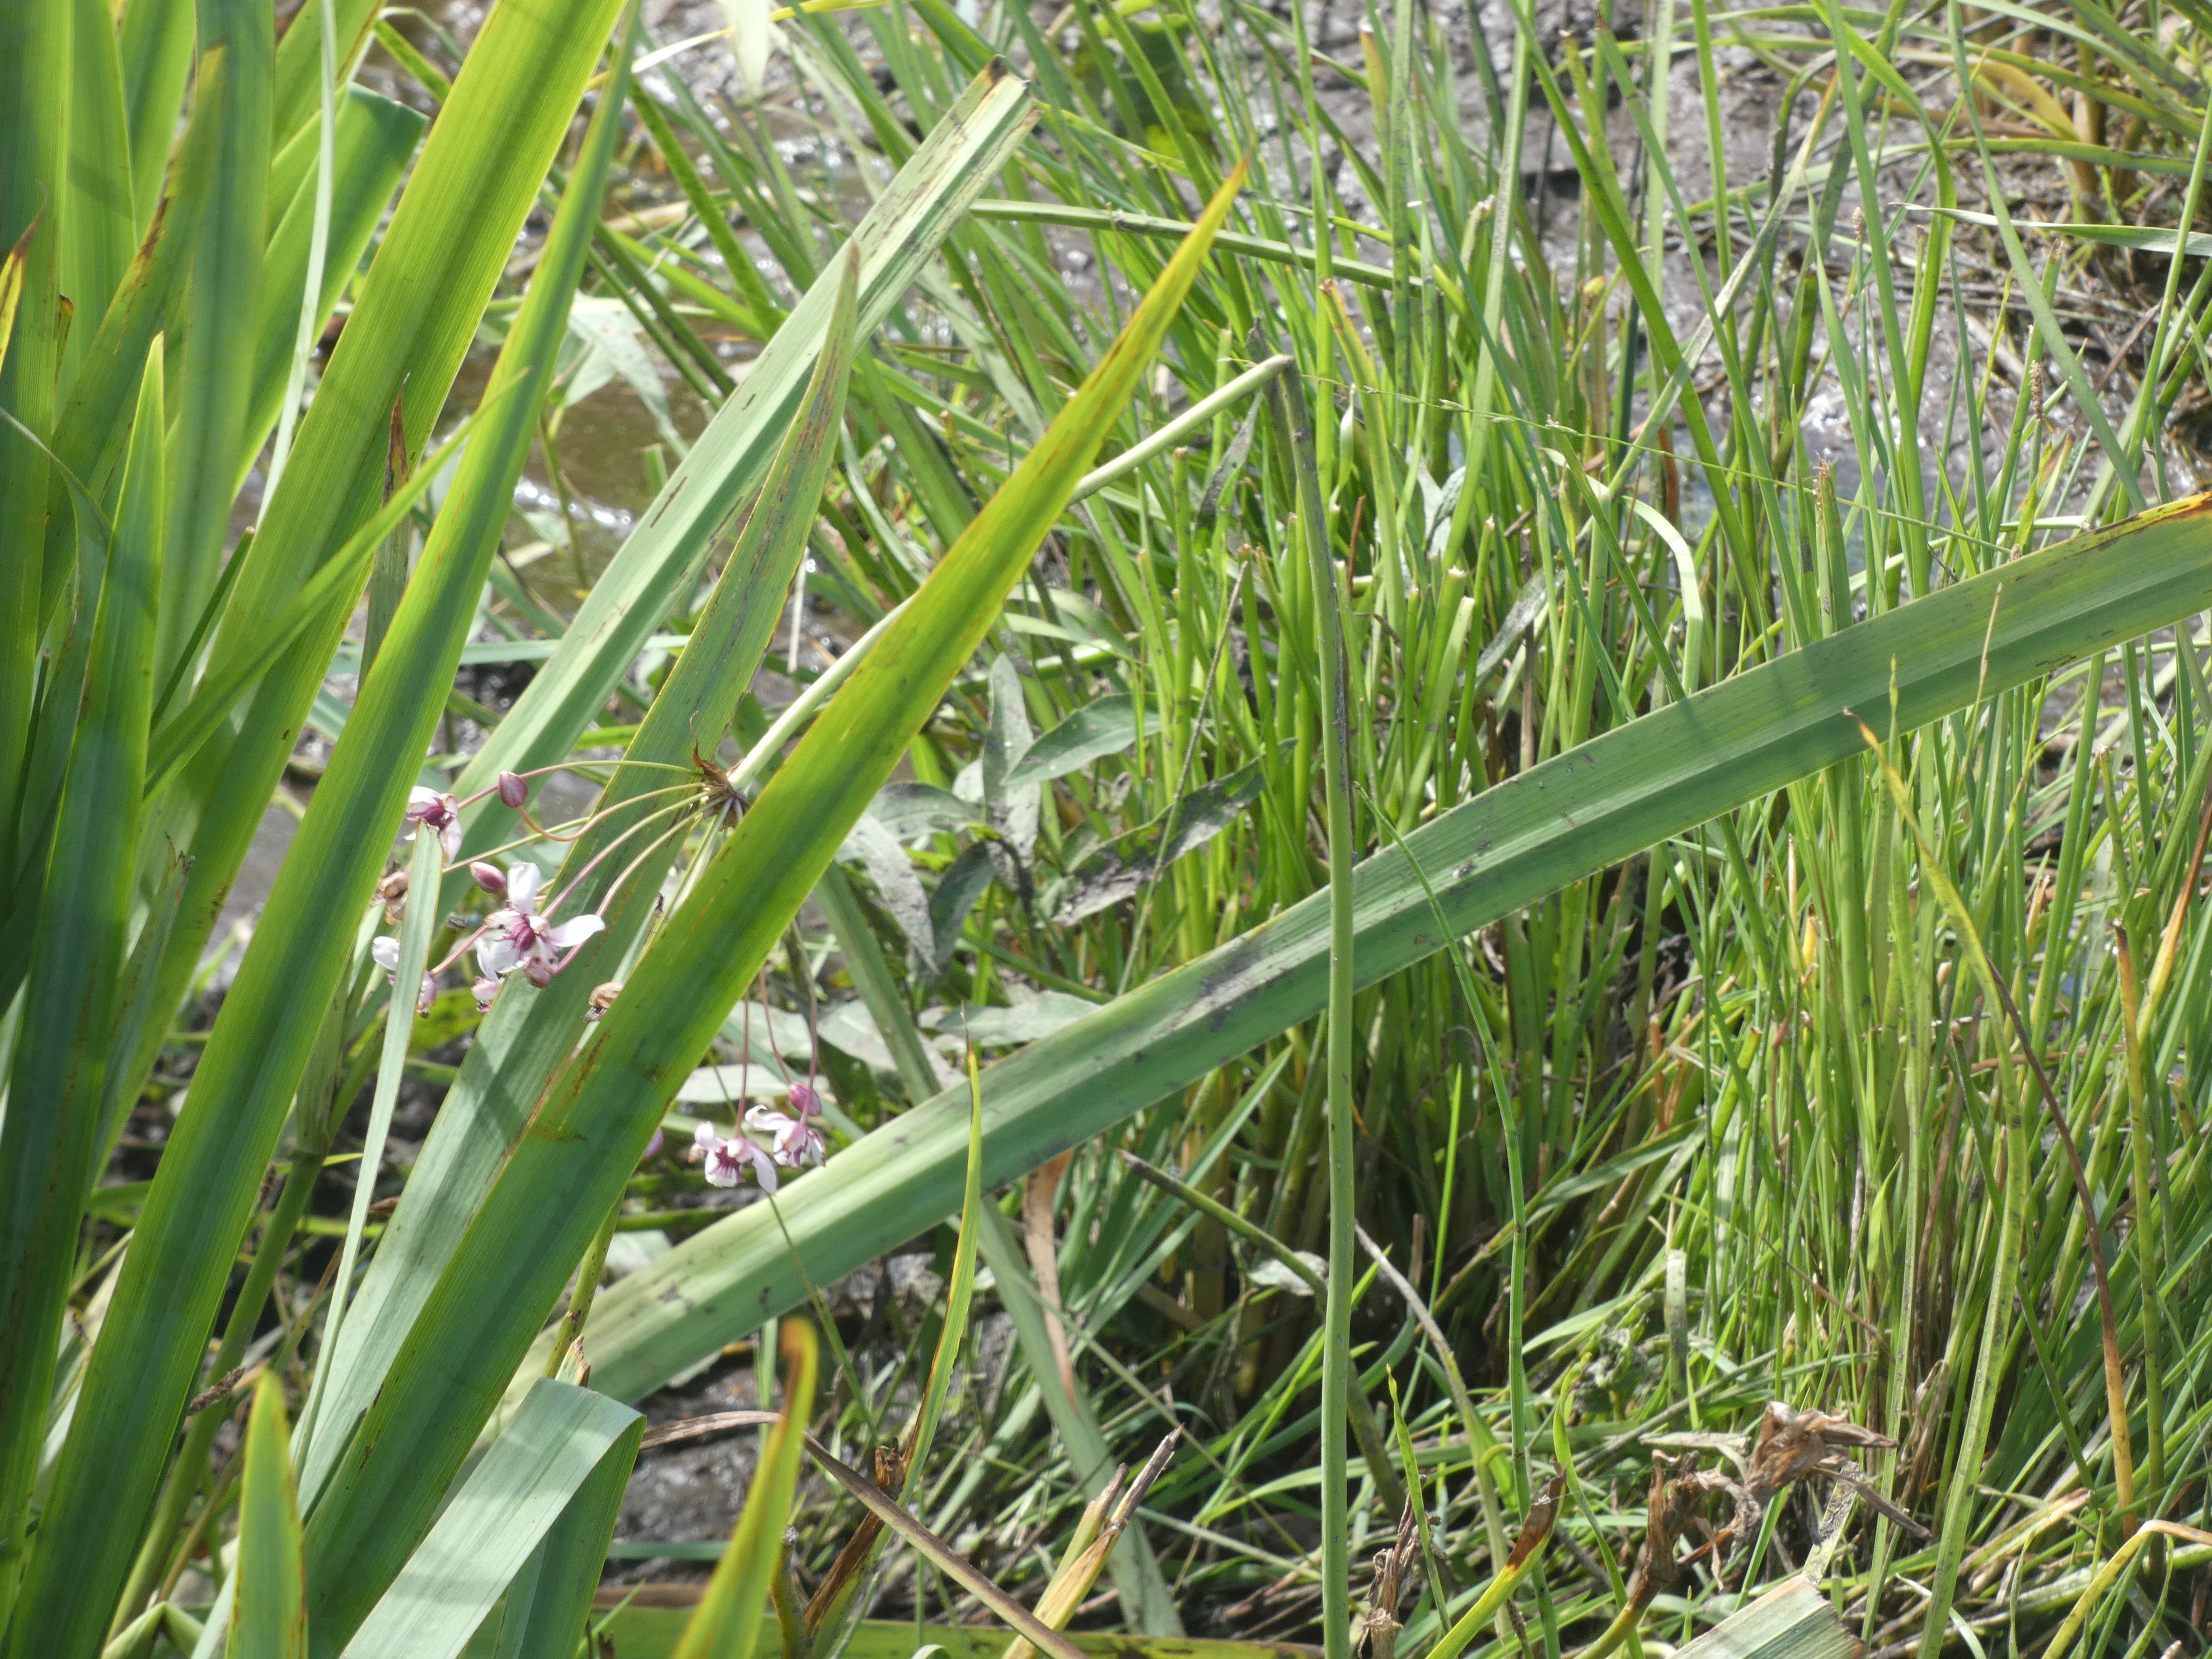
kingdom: Plantae
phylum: Tracheophyta
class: Liliopsida
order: Alismatales
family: Butomaceae
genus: Butomus
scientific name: Butomus umbellatus
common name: Brudelys
